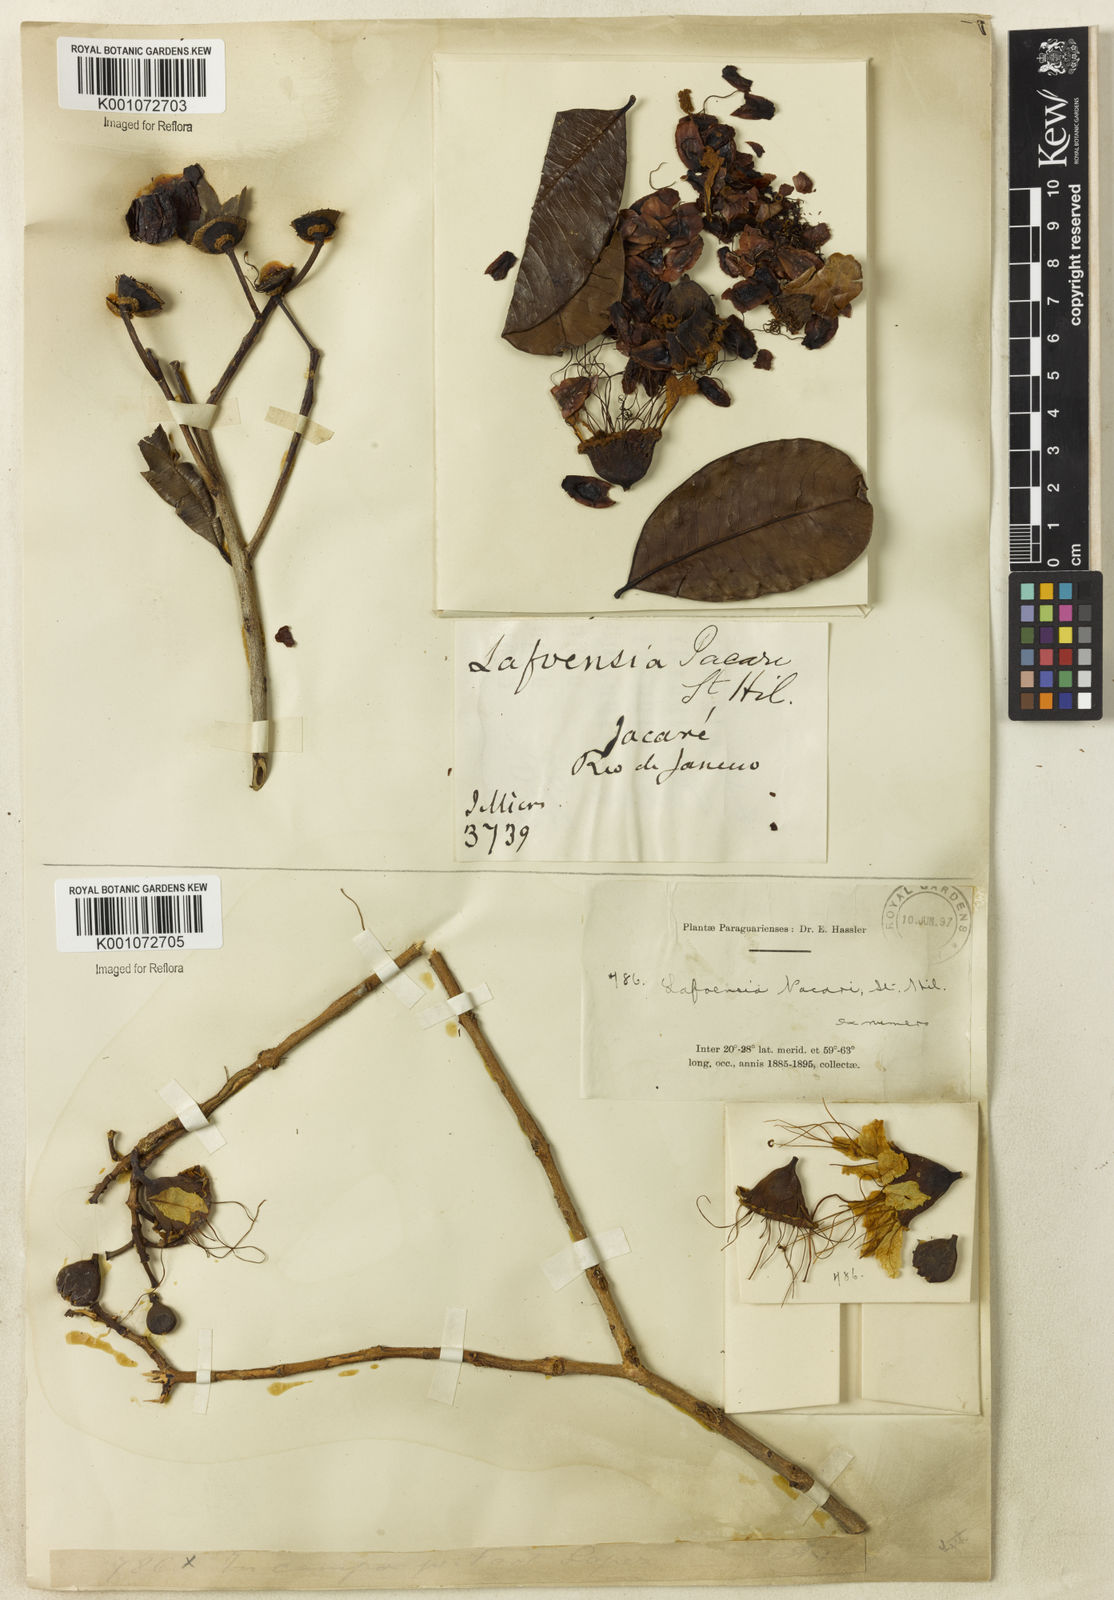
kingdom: Plantae
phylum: Tracheophyta
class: Magnoliopsida
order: Myrtales
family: Lythraceae
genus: Lafoensia
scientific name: Lafoensia pacari
